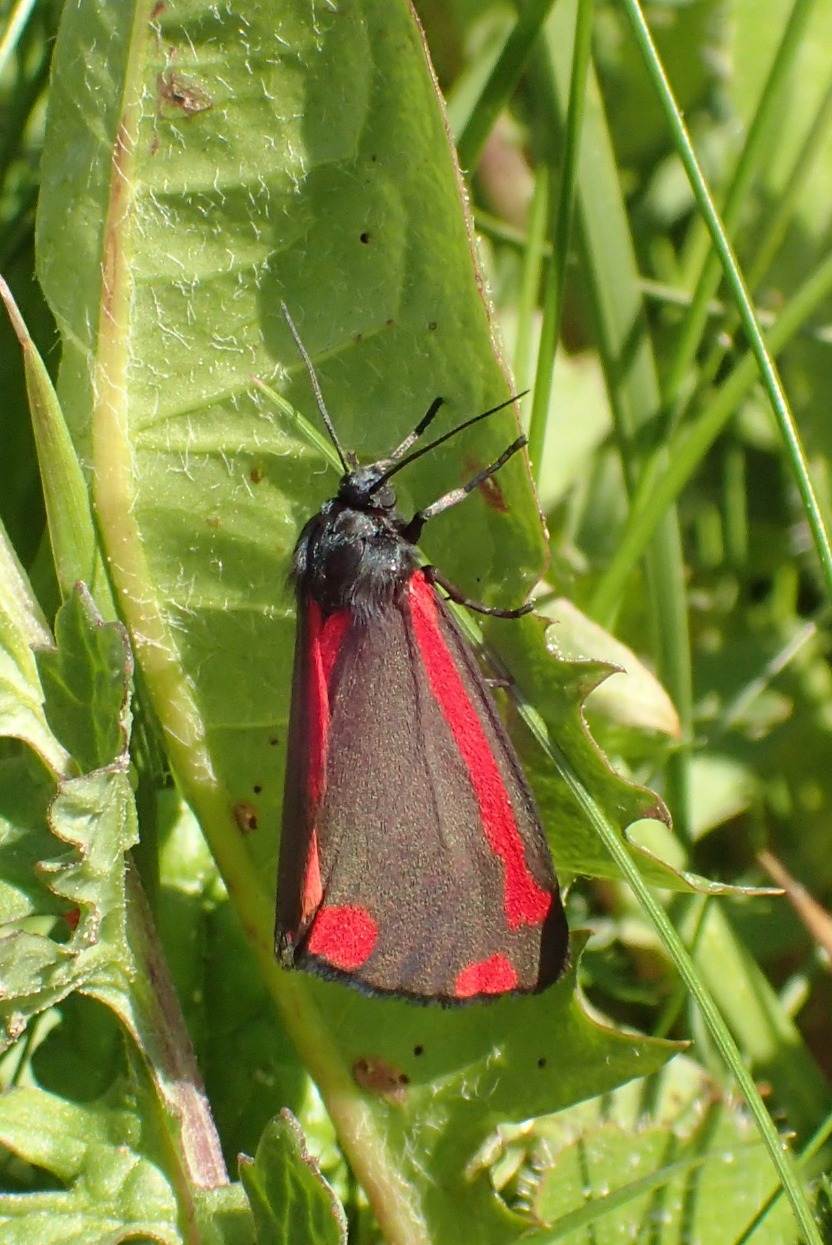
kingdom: Animalia
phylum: Arthropoda
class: Insecta
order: Lepidoptera
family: Erebidae
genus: Tyria
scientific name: Tyria jacobaeae
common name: Blodplet
